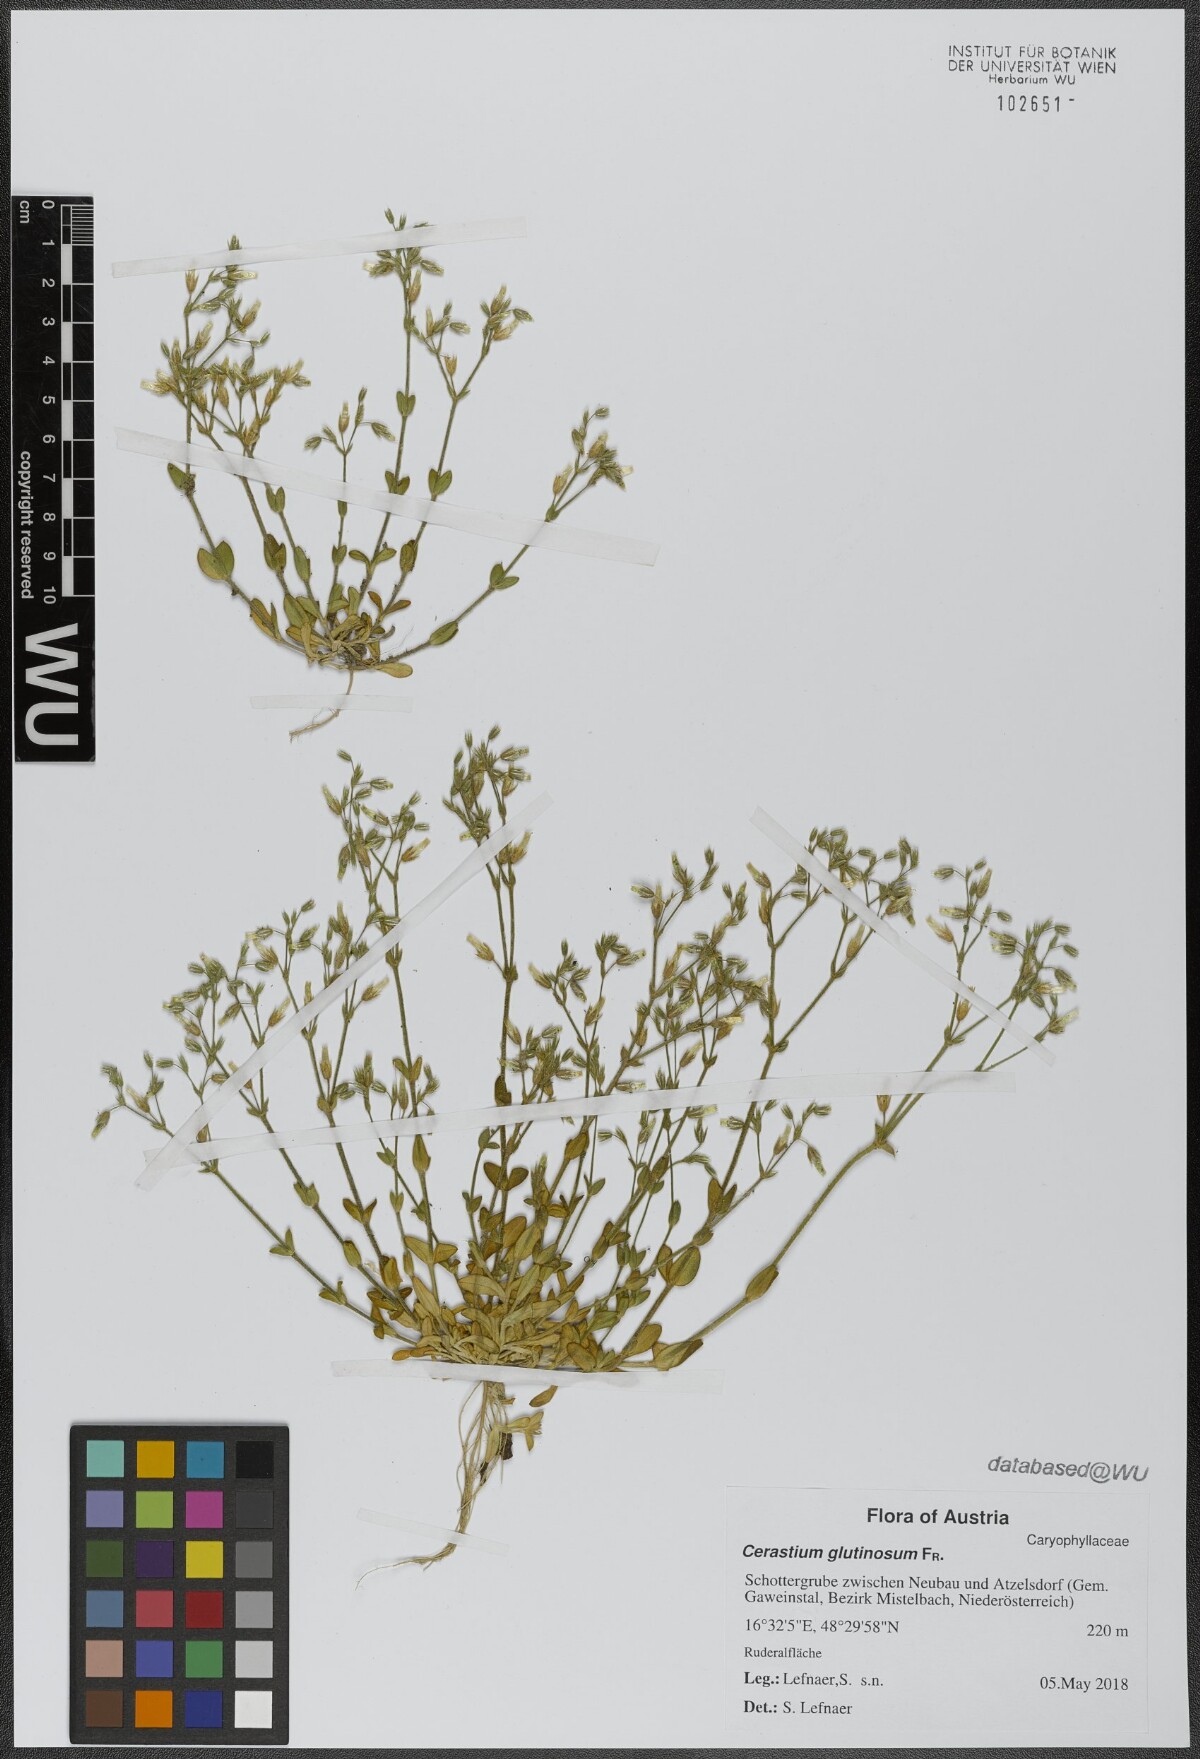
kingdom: Plantae
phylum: Tracheophyta
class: Magnoliopsida
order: Caryophyllales
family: Caryophyllaceae
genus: Cerastium
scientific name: Cerastium glutinosum
